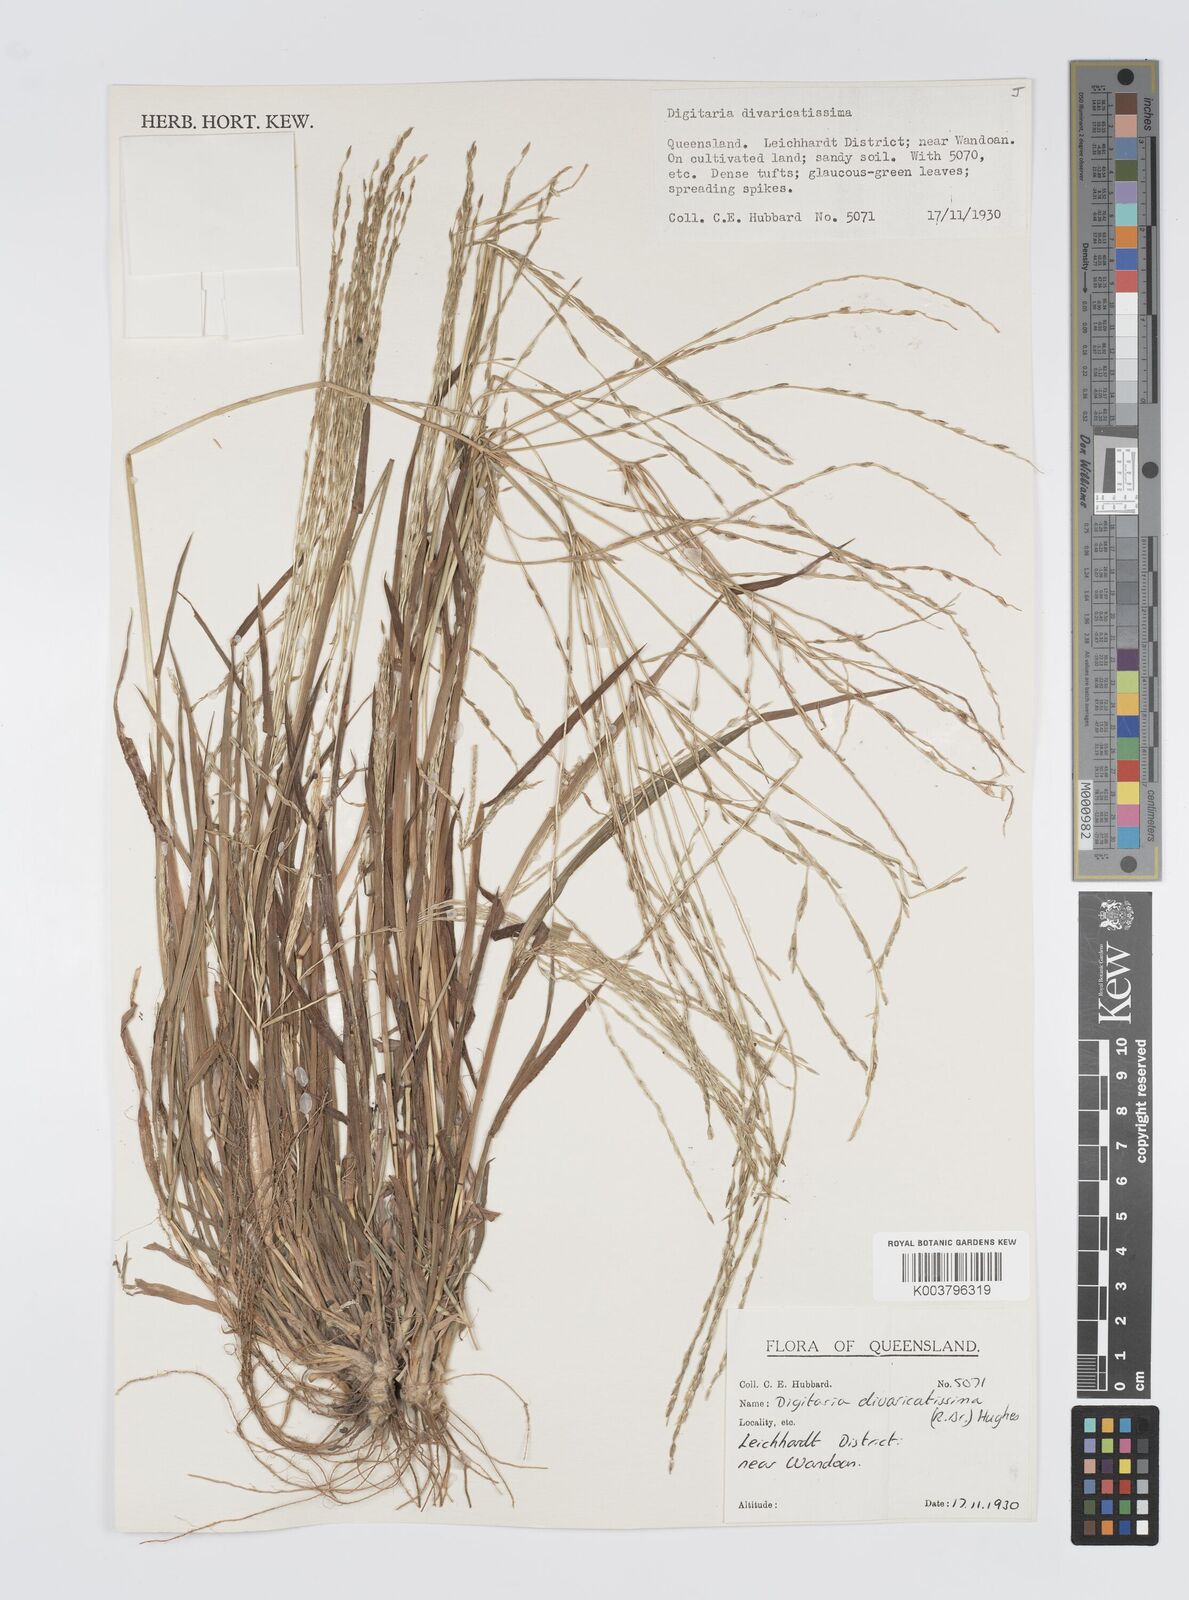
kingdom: Plantae
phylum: Tracheophyta
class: Liliopsida
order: Poales
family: Poaceae
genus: Digitaria
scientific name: Digitaria divaricatissima
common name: Crabgrass
